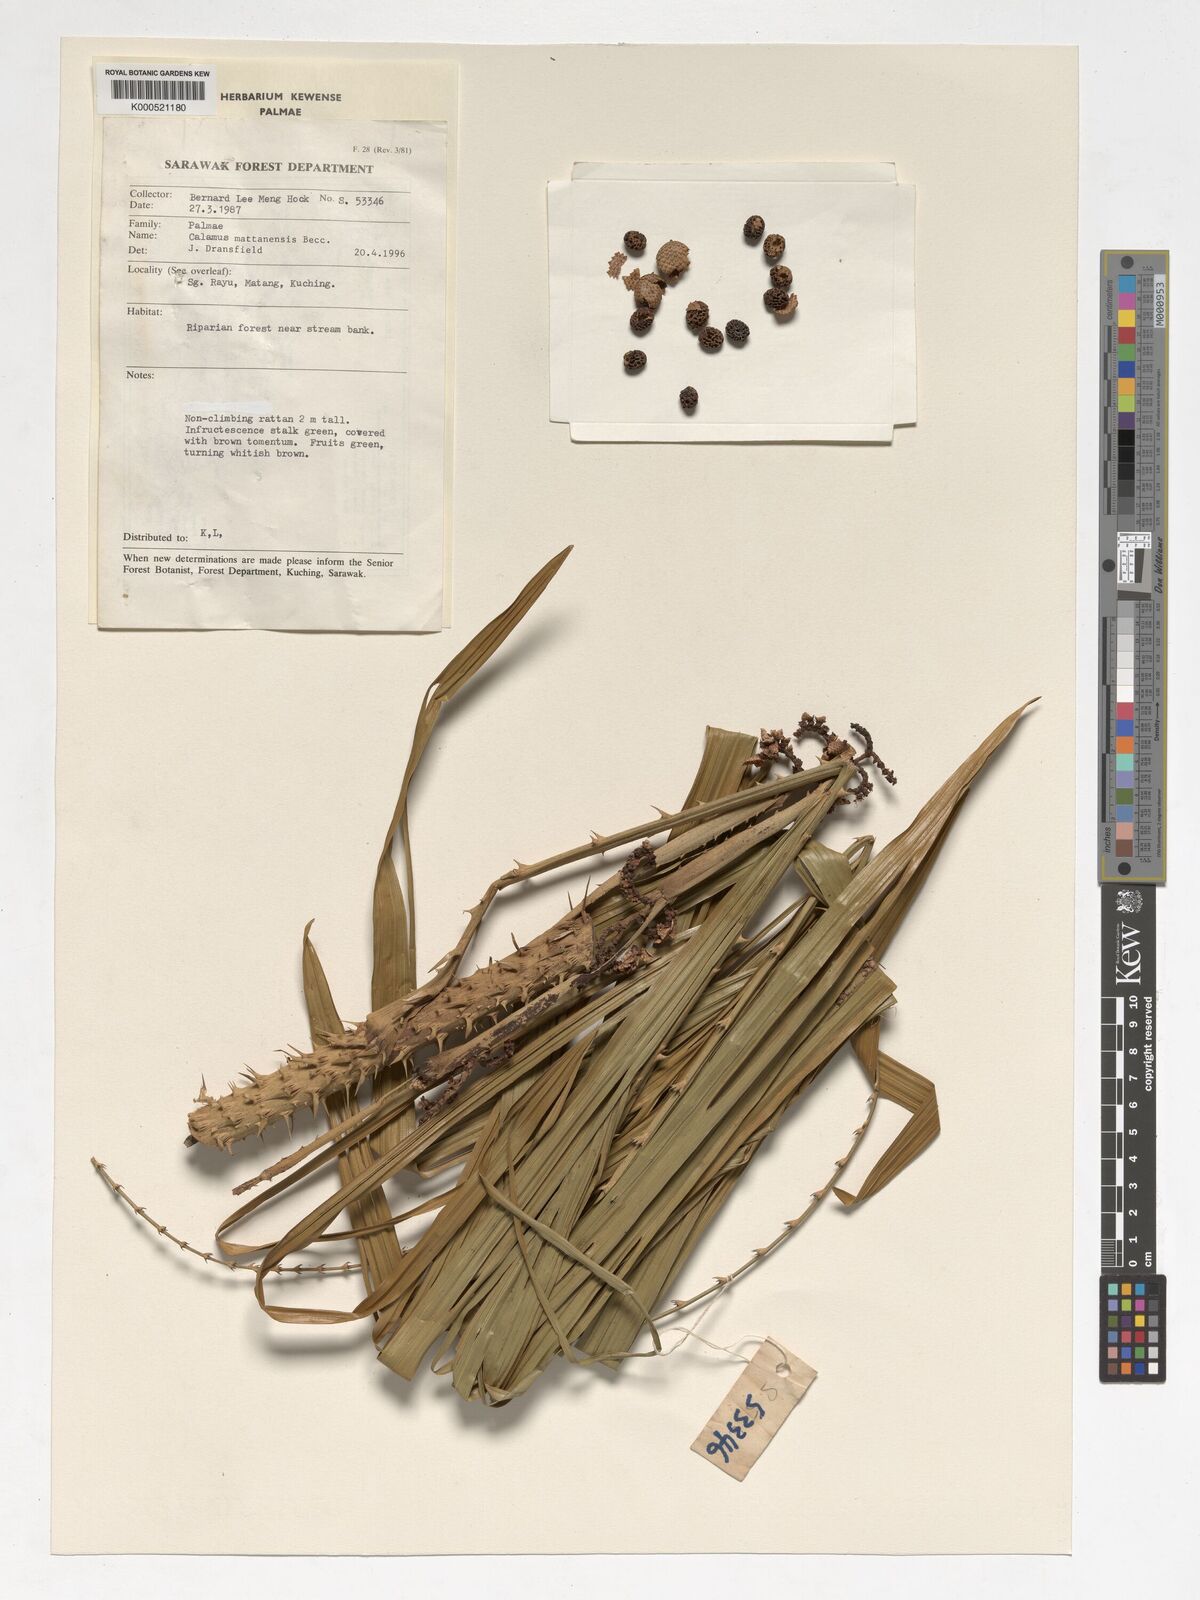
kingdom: Plantae
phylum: Tracheophyta
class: Liliopsida
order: Arecales
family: Arecaceae
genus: Calamus
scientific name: Calamus
